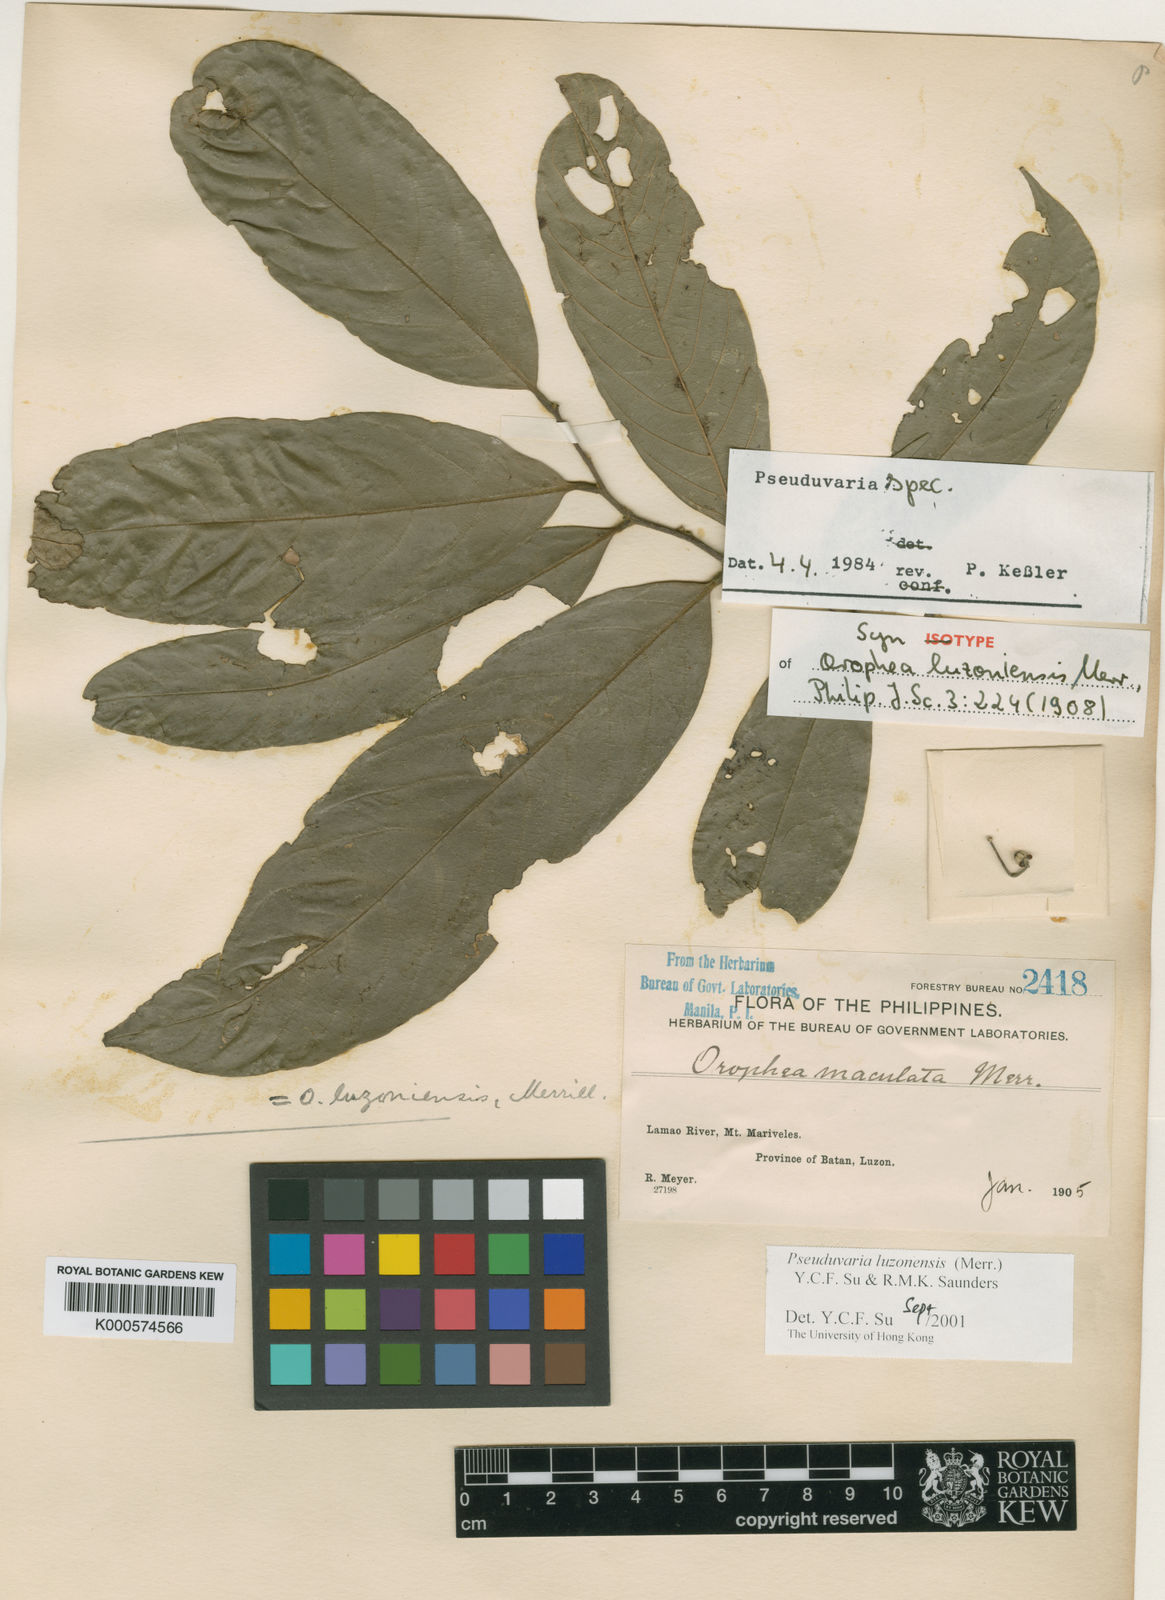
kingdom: Plantae
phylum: Tracheophyta
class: Magnoliopsida
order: Magnoliales
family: Annonaceae
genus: Pseuduvaria
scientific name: Pseuduvaria luzoniensis
